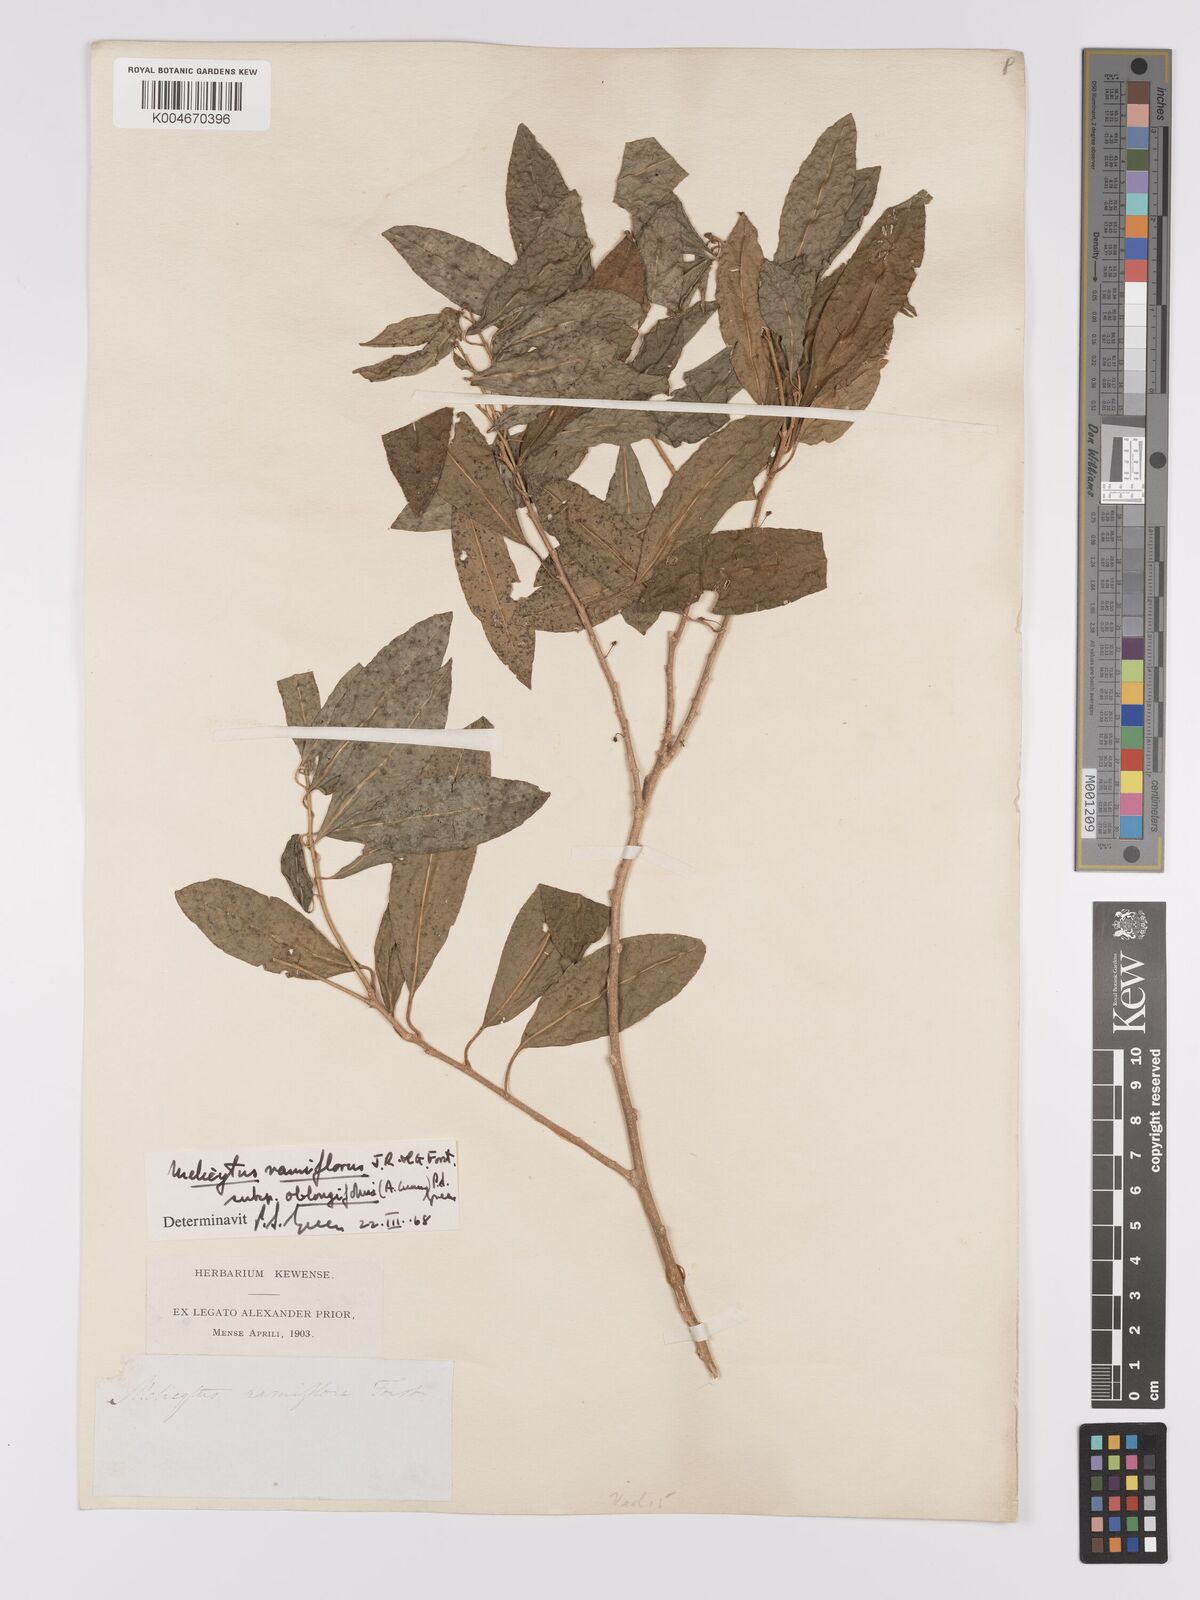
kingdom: Plantae
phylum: Tracheophyta
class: Magnoliopsida
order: Malpighiales
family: Violaceae
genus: Melicytus
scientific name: Melicytus ramiflorus
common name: Mahoe
